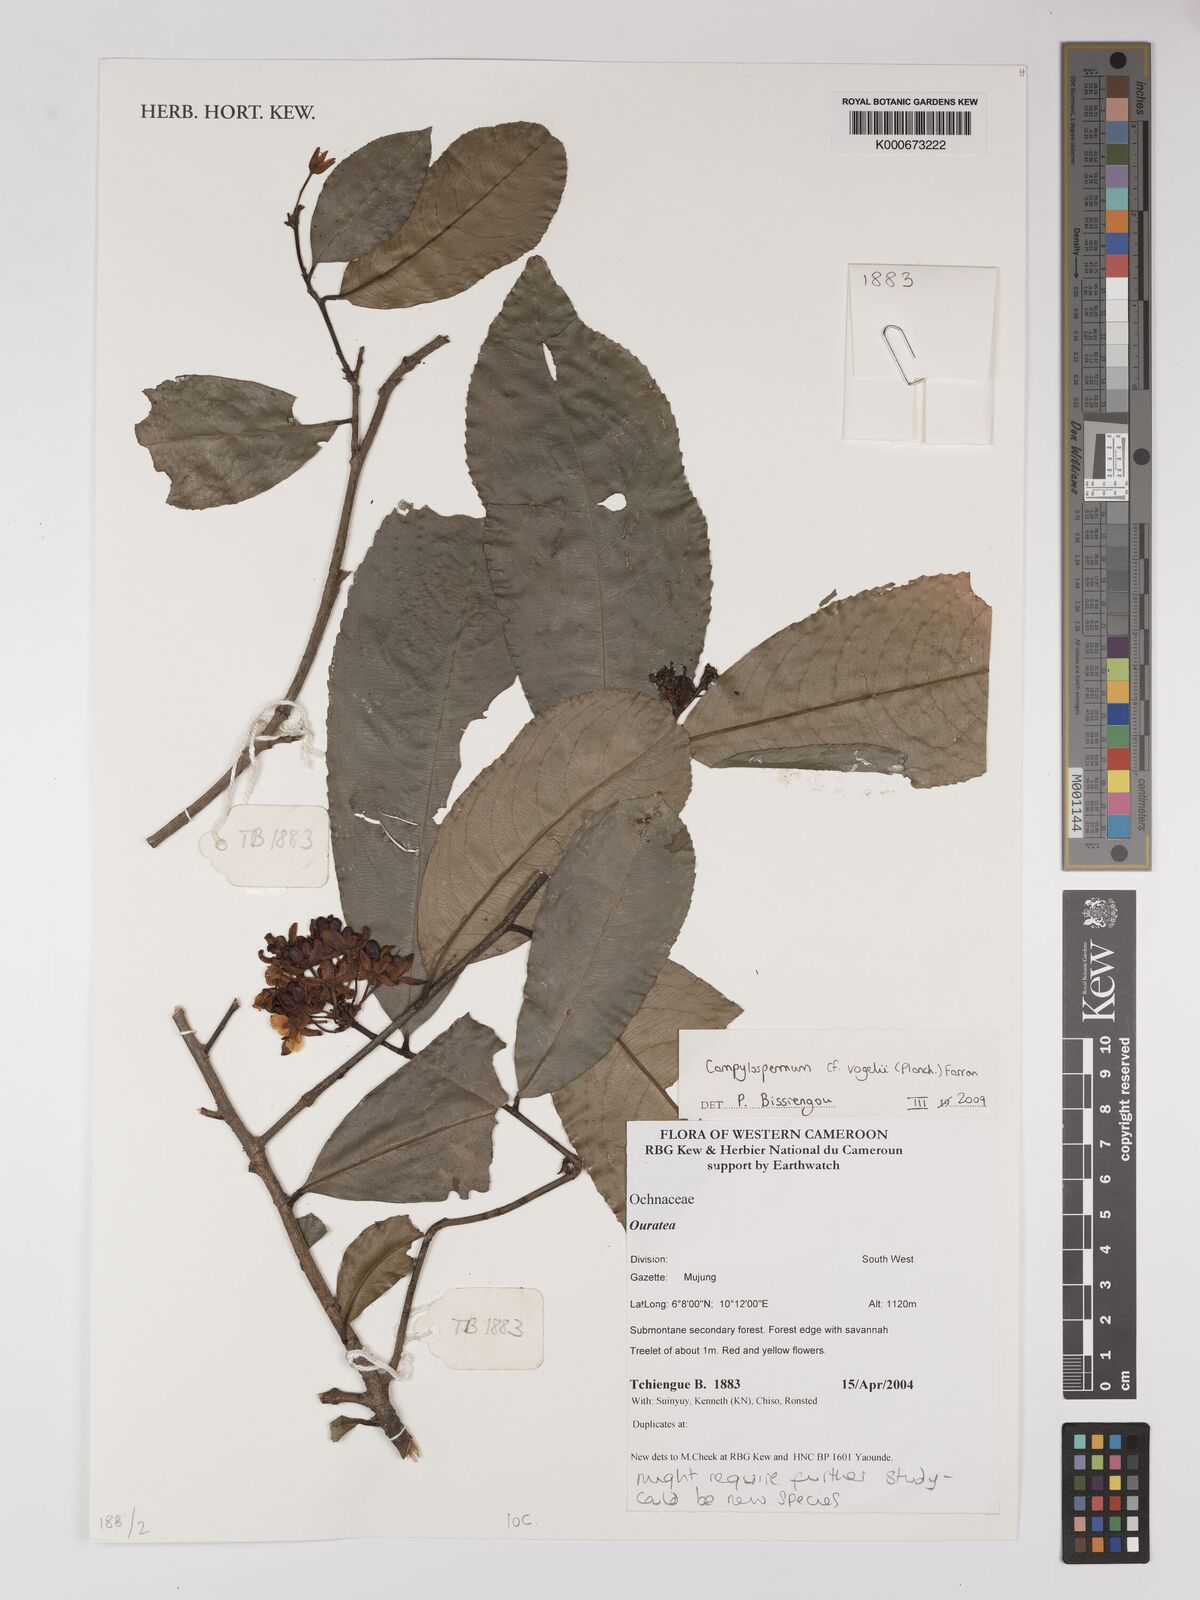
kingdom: Plantae
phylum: Tracheophyta
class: Magnoliopsida
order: Malpighiales
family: Ochnaceae
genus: Campylospermum
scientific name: Campylospermum monticola
